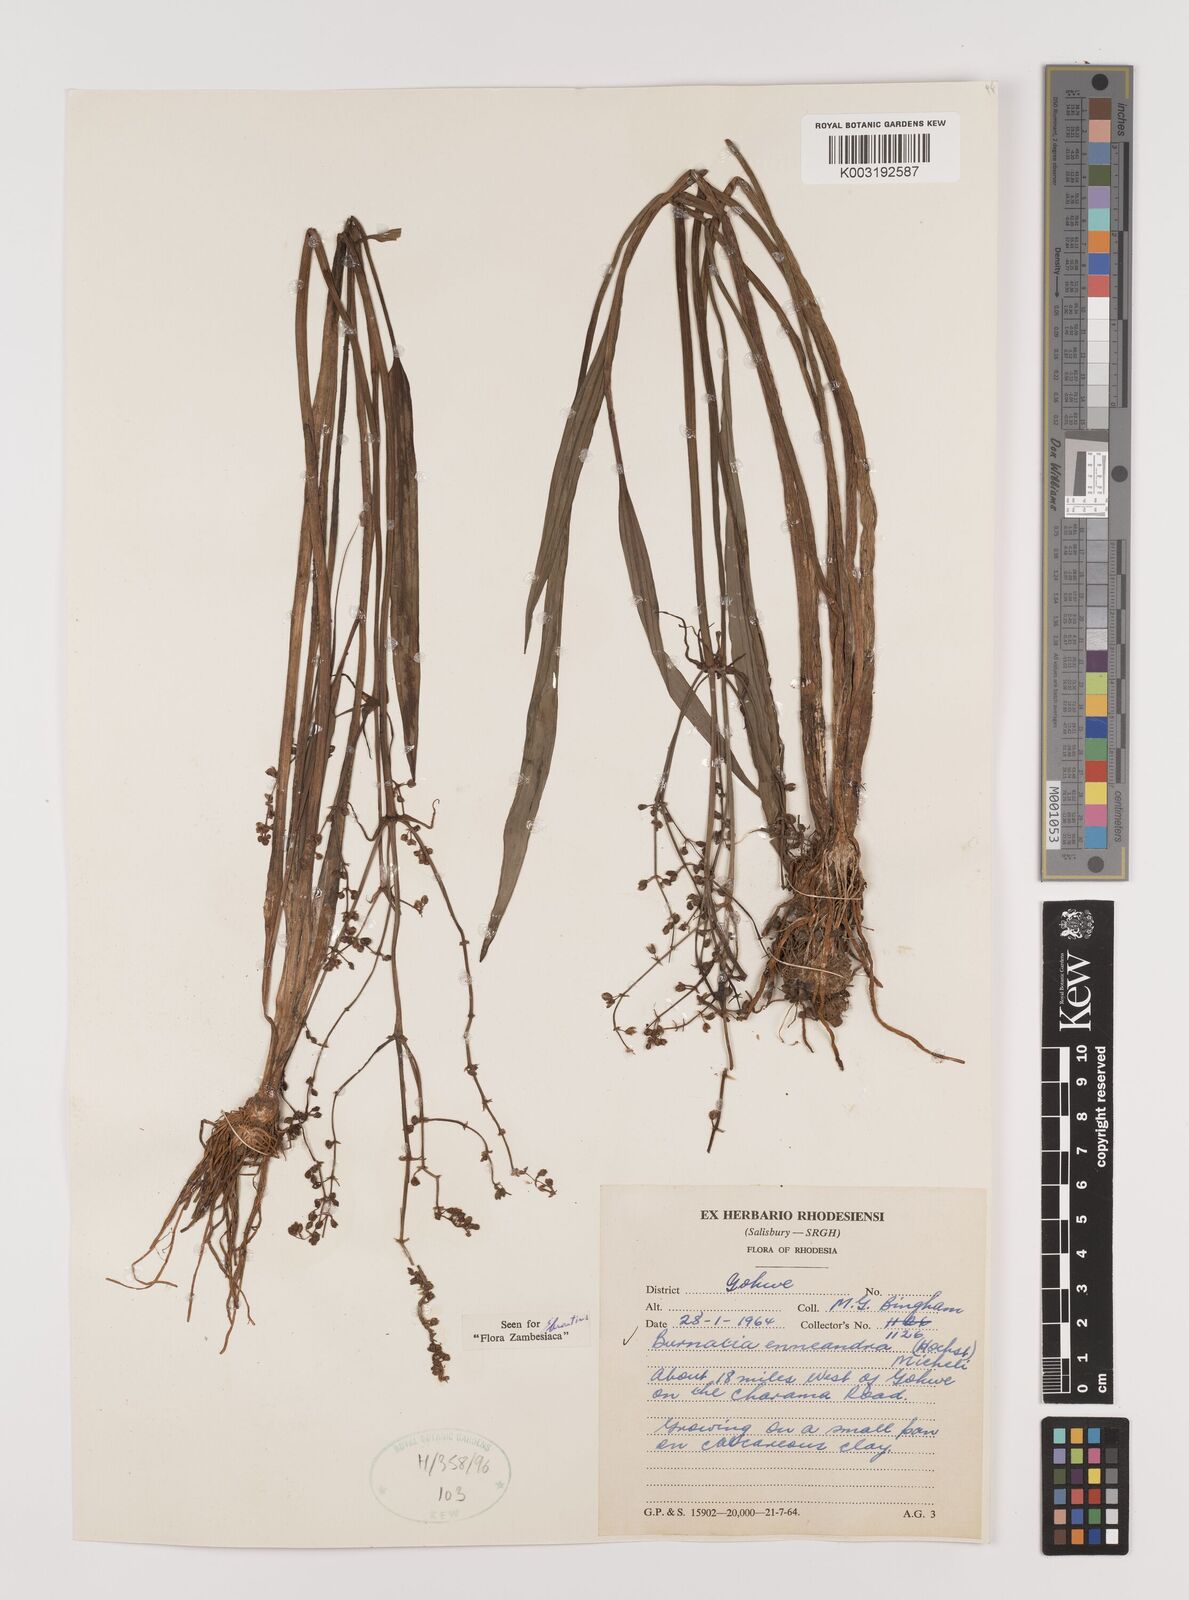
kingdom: Plantae
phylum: Tracheophyta
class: Liliopsida
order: Alismatales
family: Alismataceae
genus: Burnatia
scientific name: Burnatia enneandra
